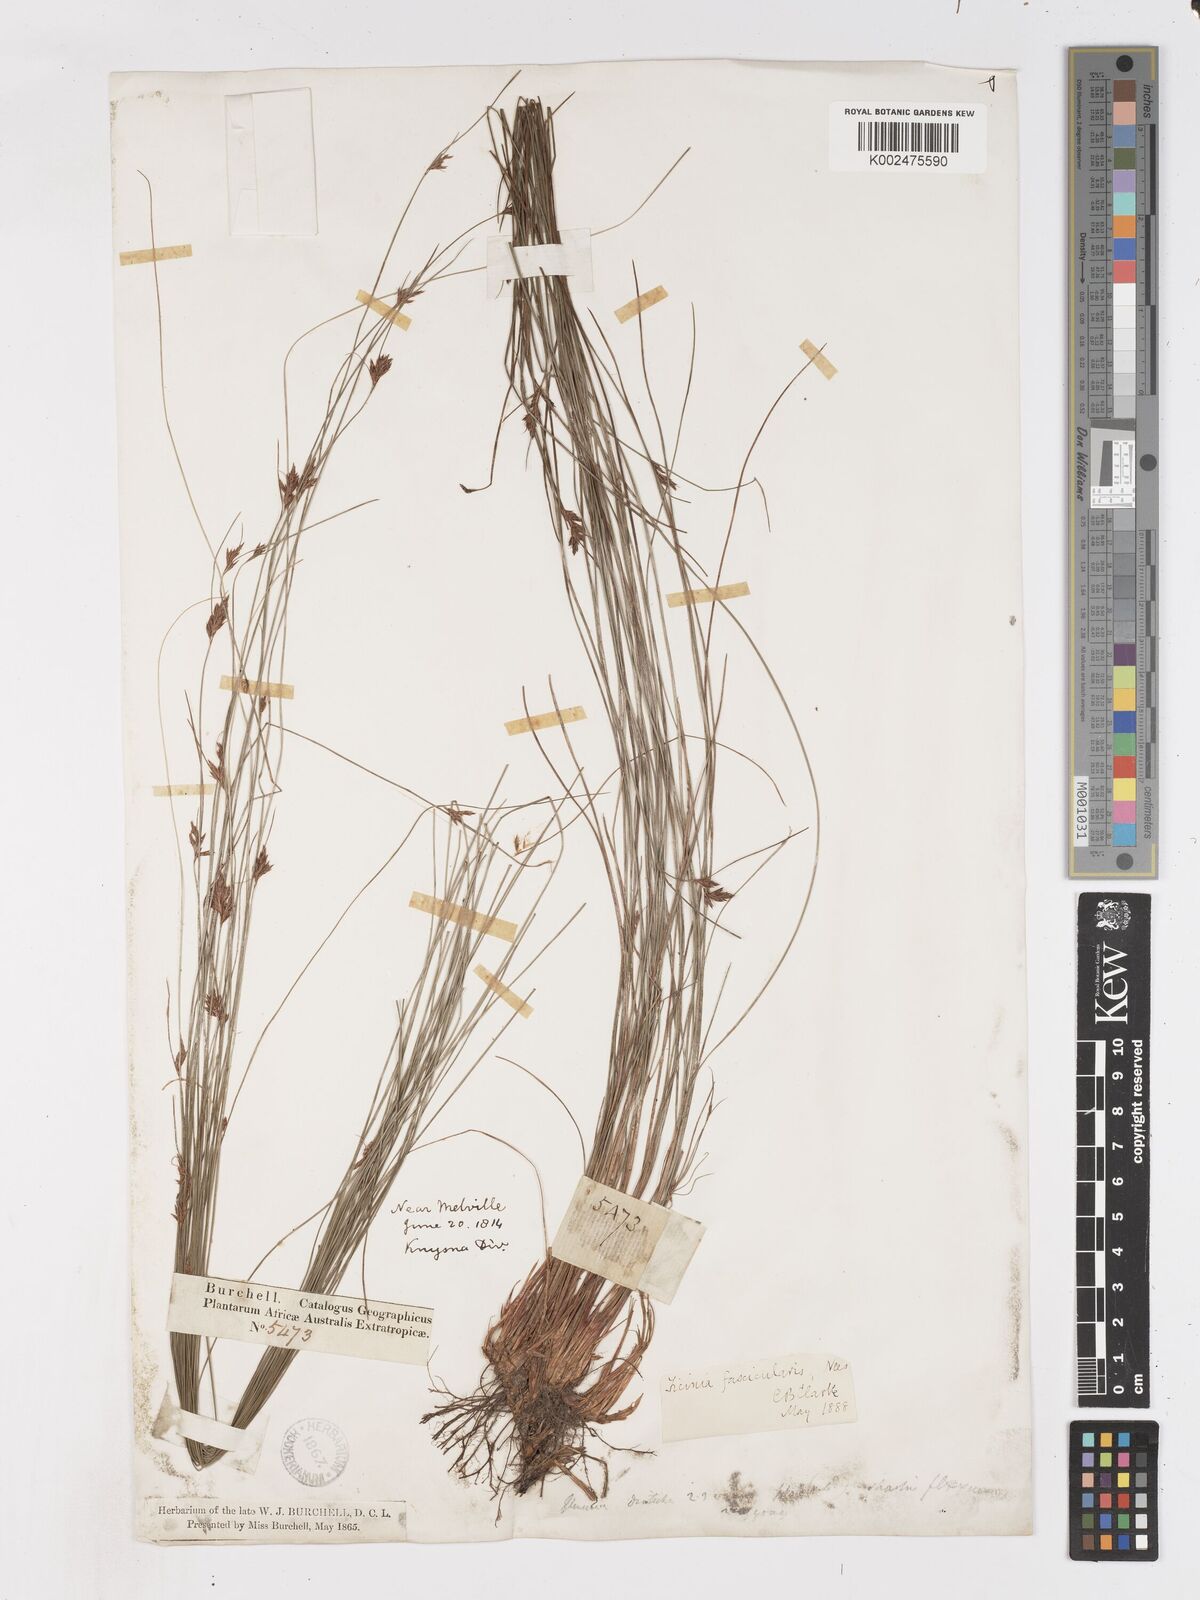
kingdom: Plantae
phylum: Tracheophyta
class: Liliopsida
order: Poales
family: Cyperaceae
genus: Ficinia
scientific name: Ficinia fascicularis
